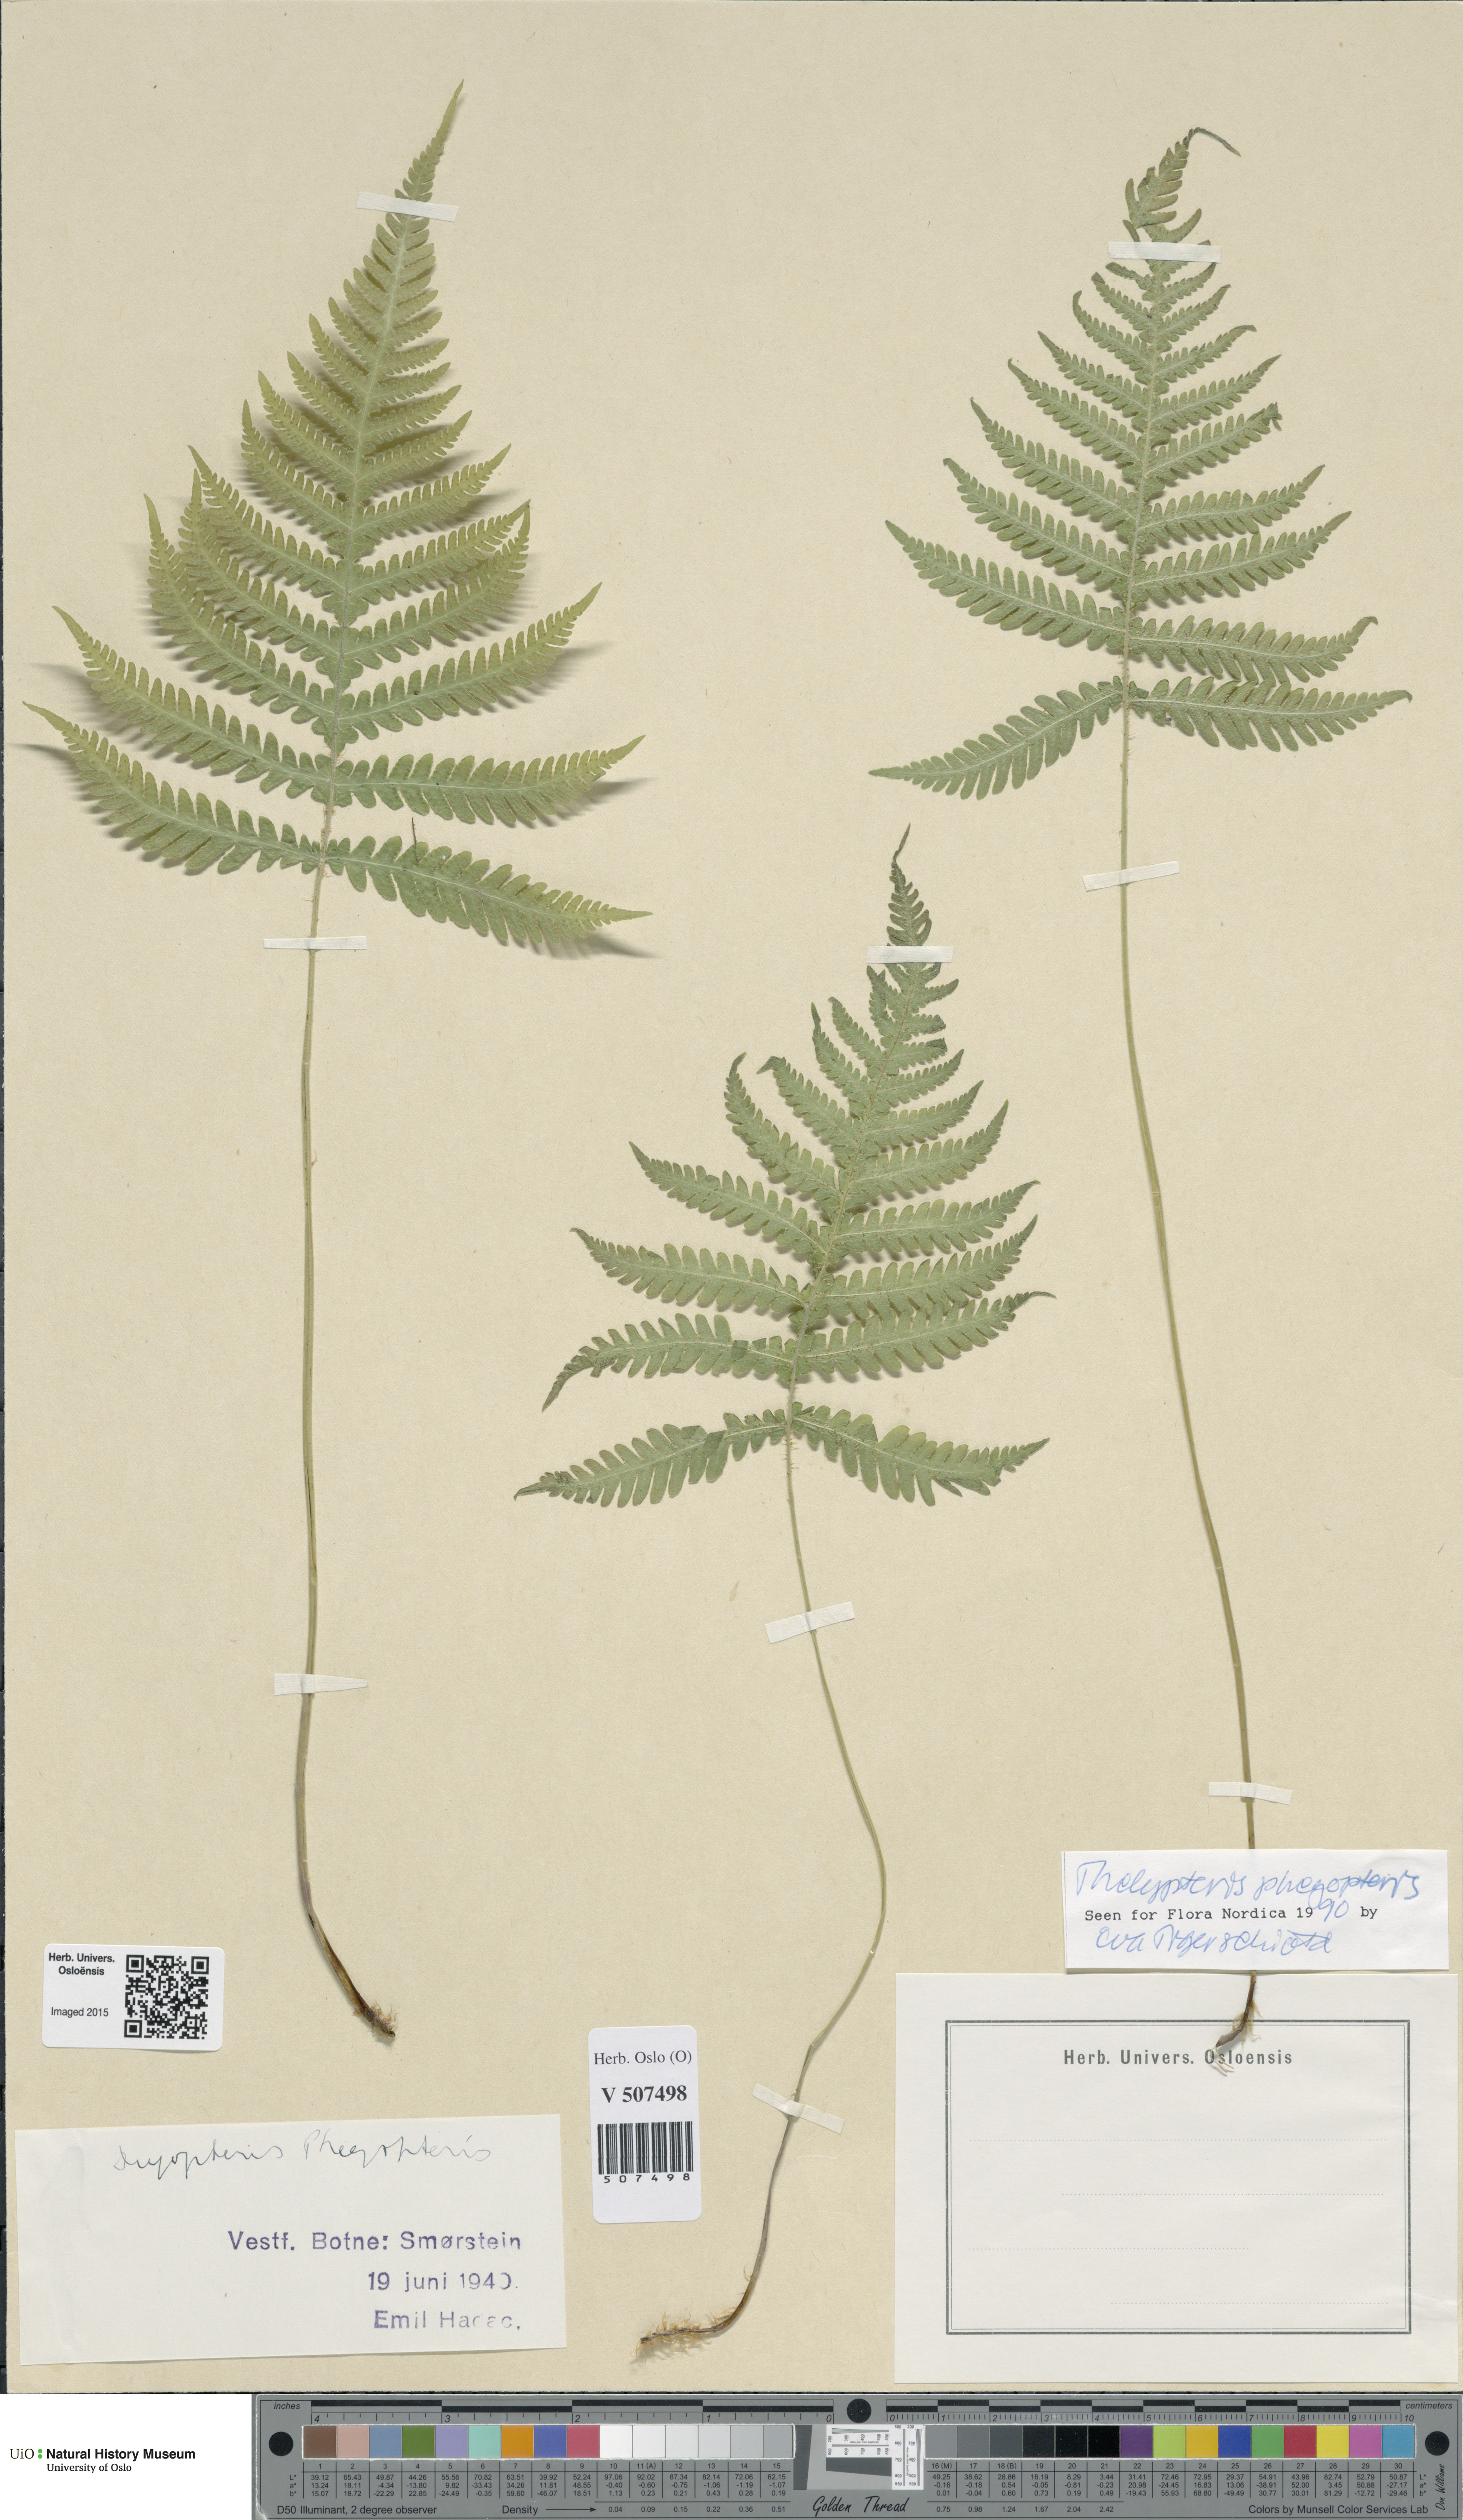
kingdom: Plantae
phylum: Tracheophyta
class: Polypodiopsida
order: Polypodiales
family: Thelypteridaceae
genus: Phegopteris
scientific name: Phegopteris connectilis
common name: Beech fern
